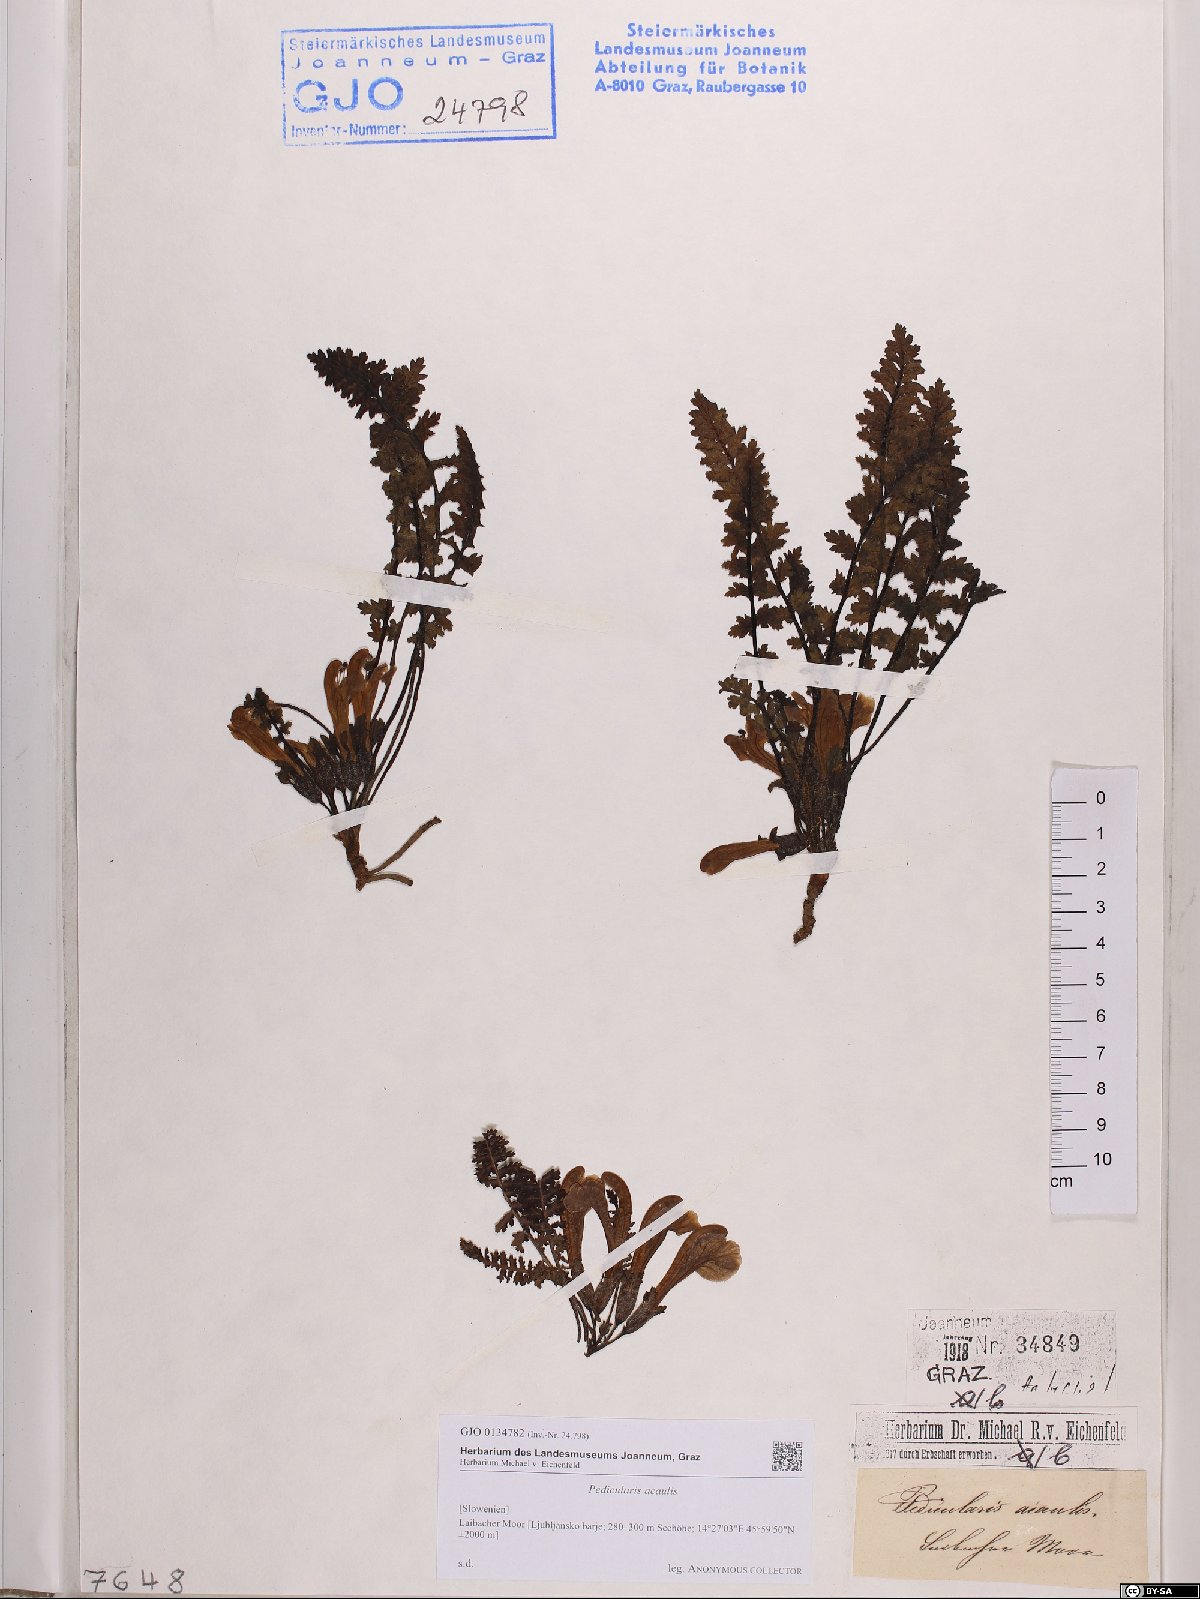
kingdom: Plantae
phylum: Tracheophyta
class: Magnoliopsida
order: Lamiales
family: Orobanchaceae
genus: Pedicularis
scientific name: Pedicularis acaulis
